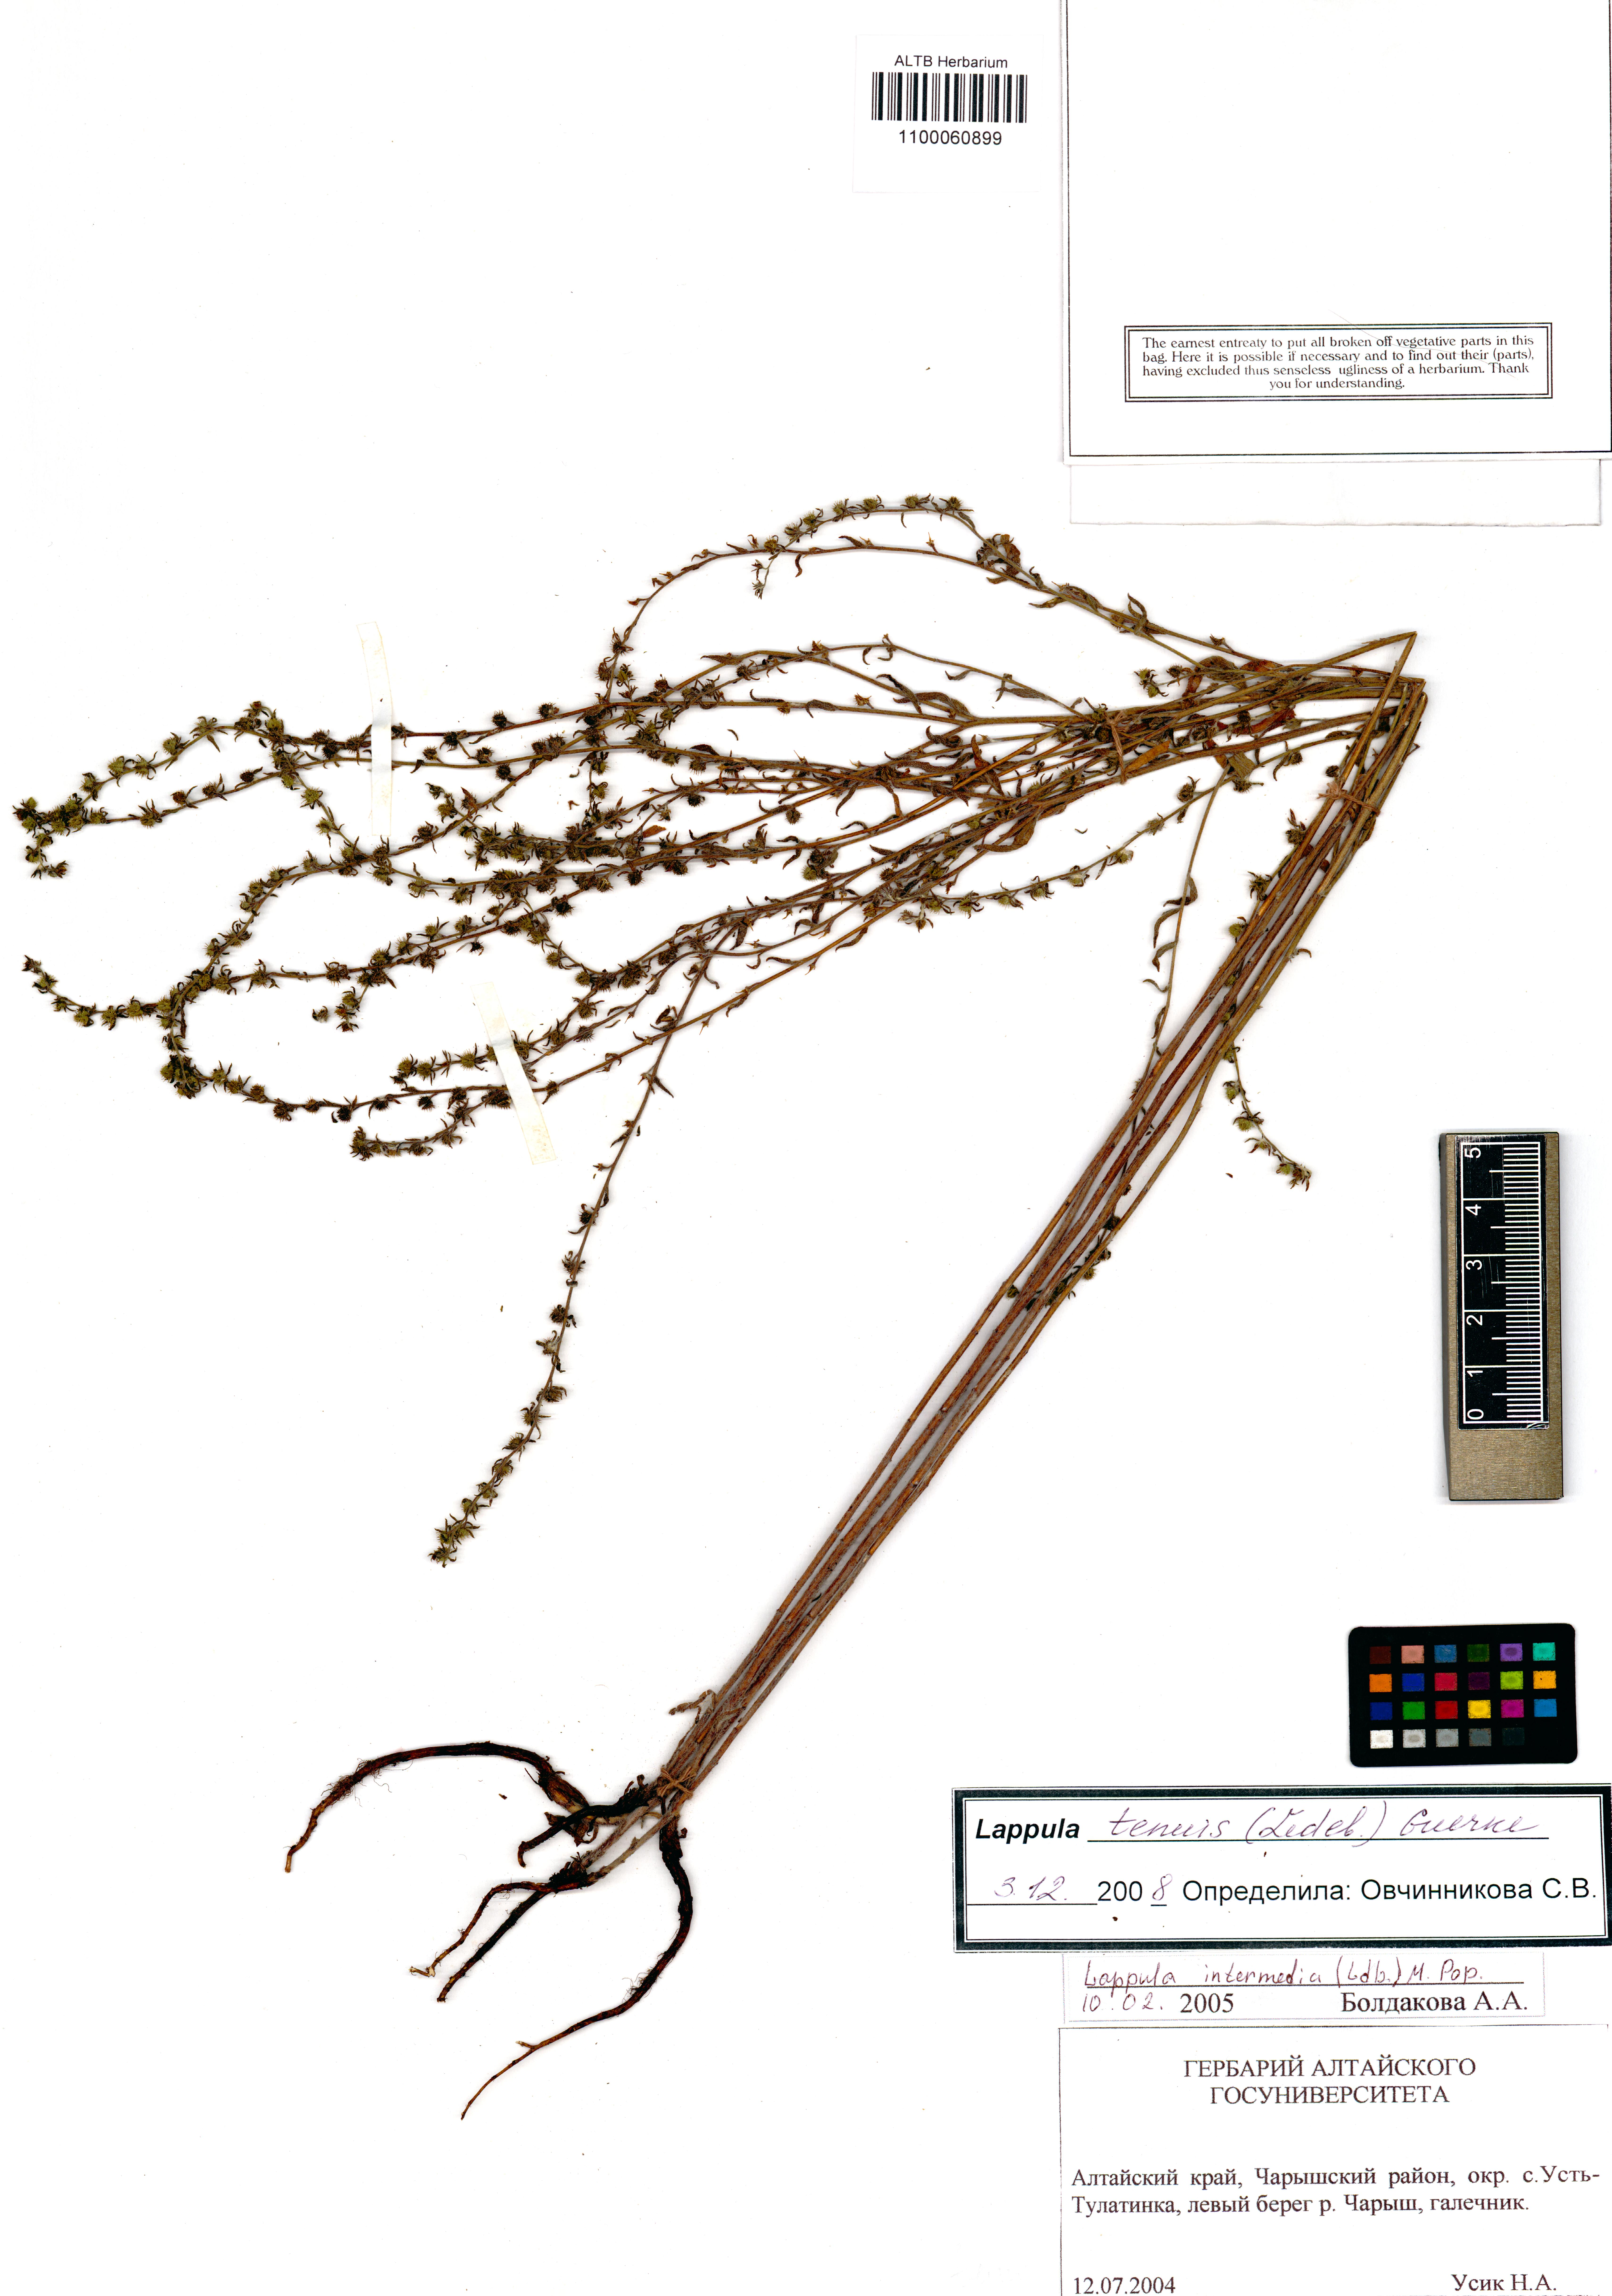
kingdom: Plantae
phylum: Tracheophyta
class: Magnoliopsida
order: Boraginales
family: Boraginaceae
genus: Lappula
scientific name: Lappula tenuis
